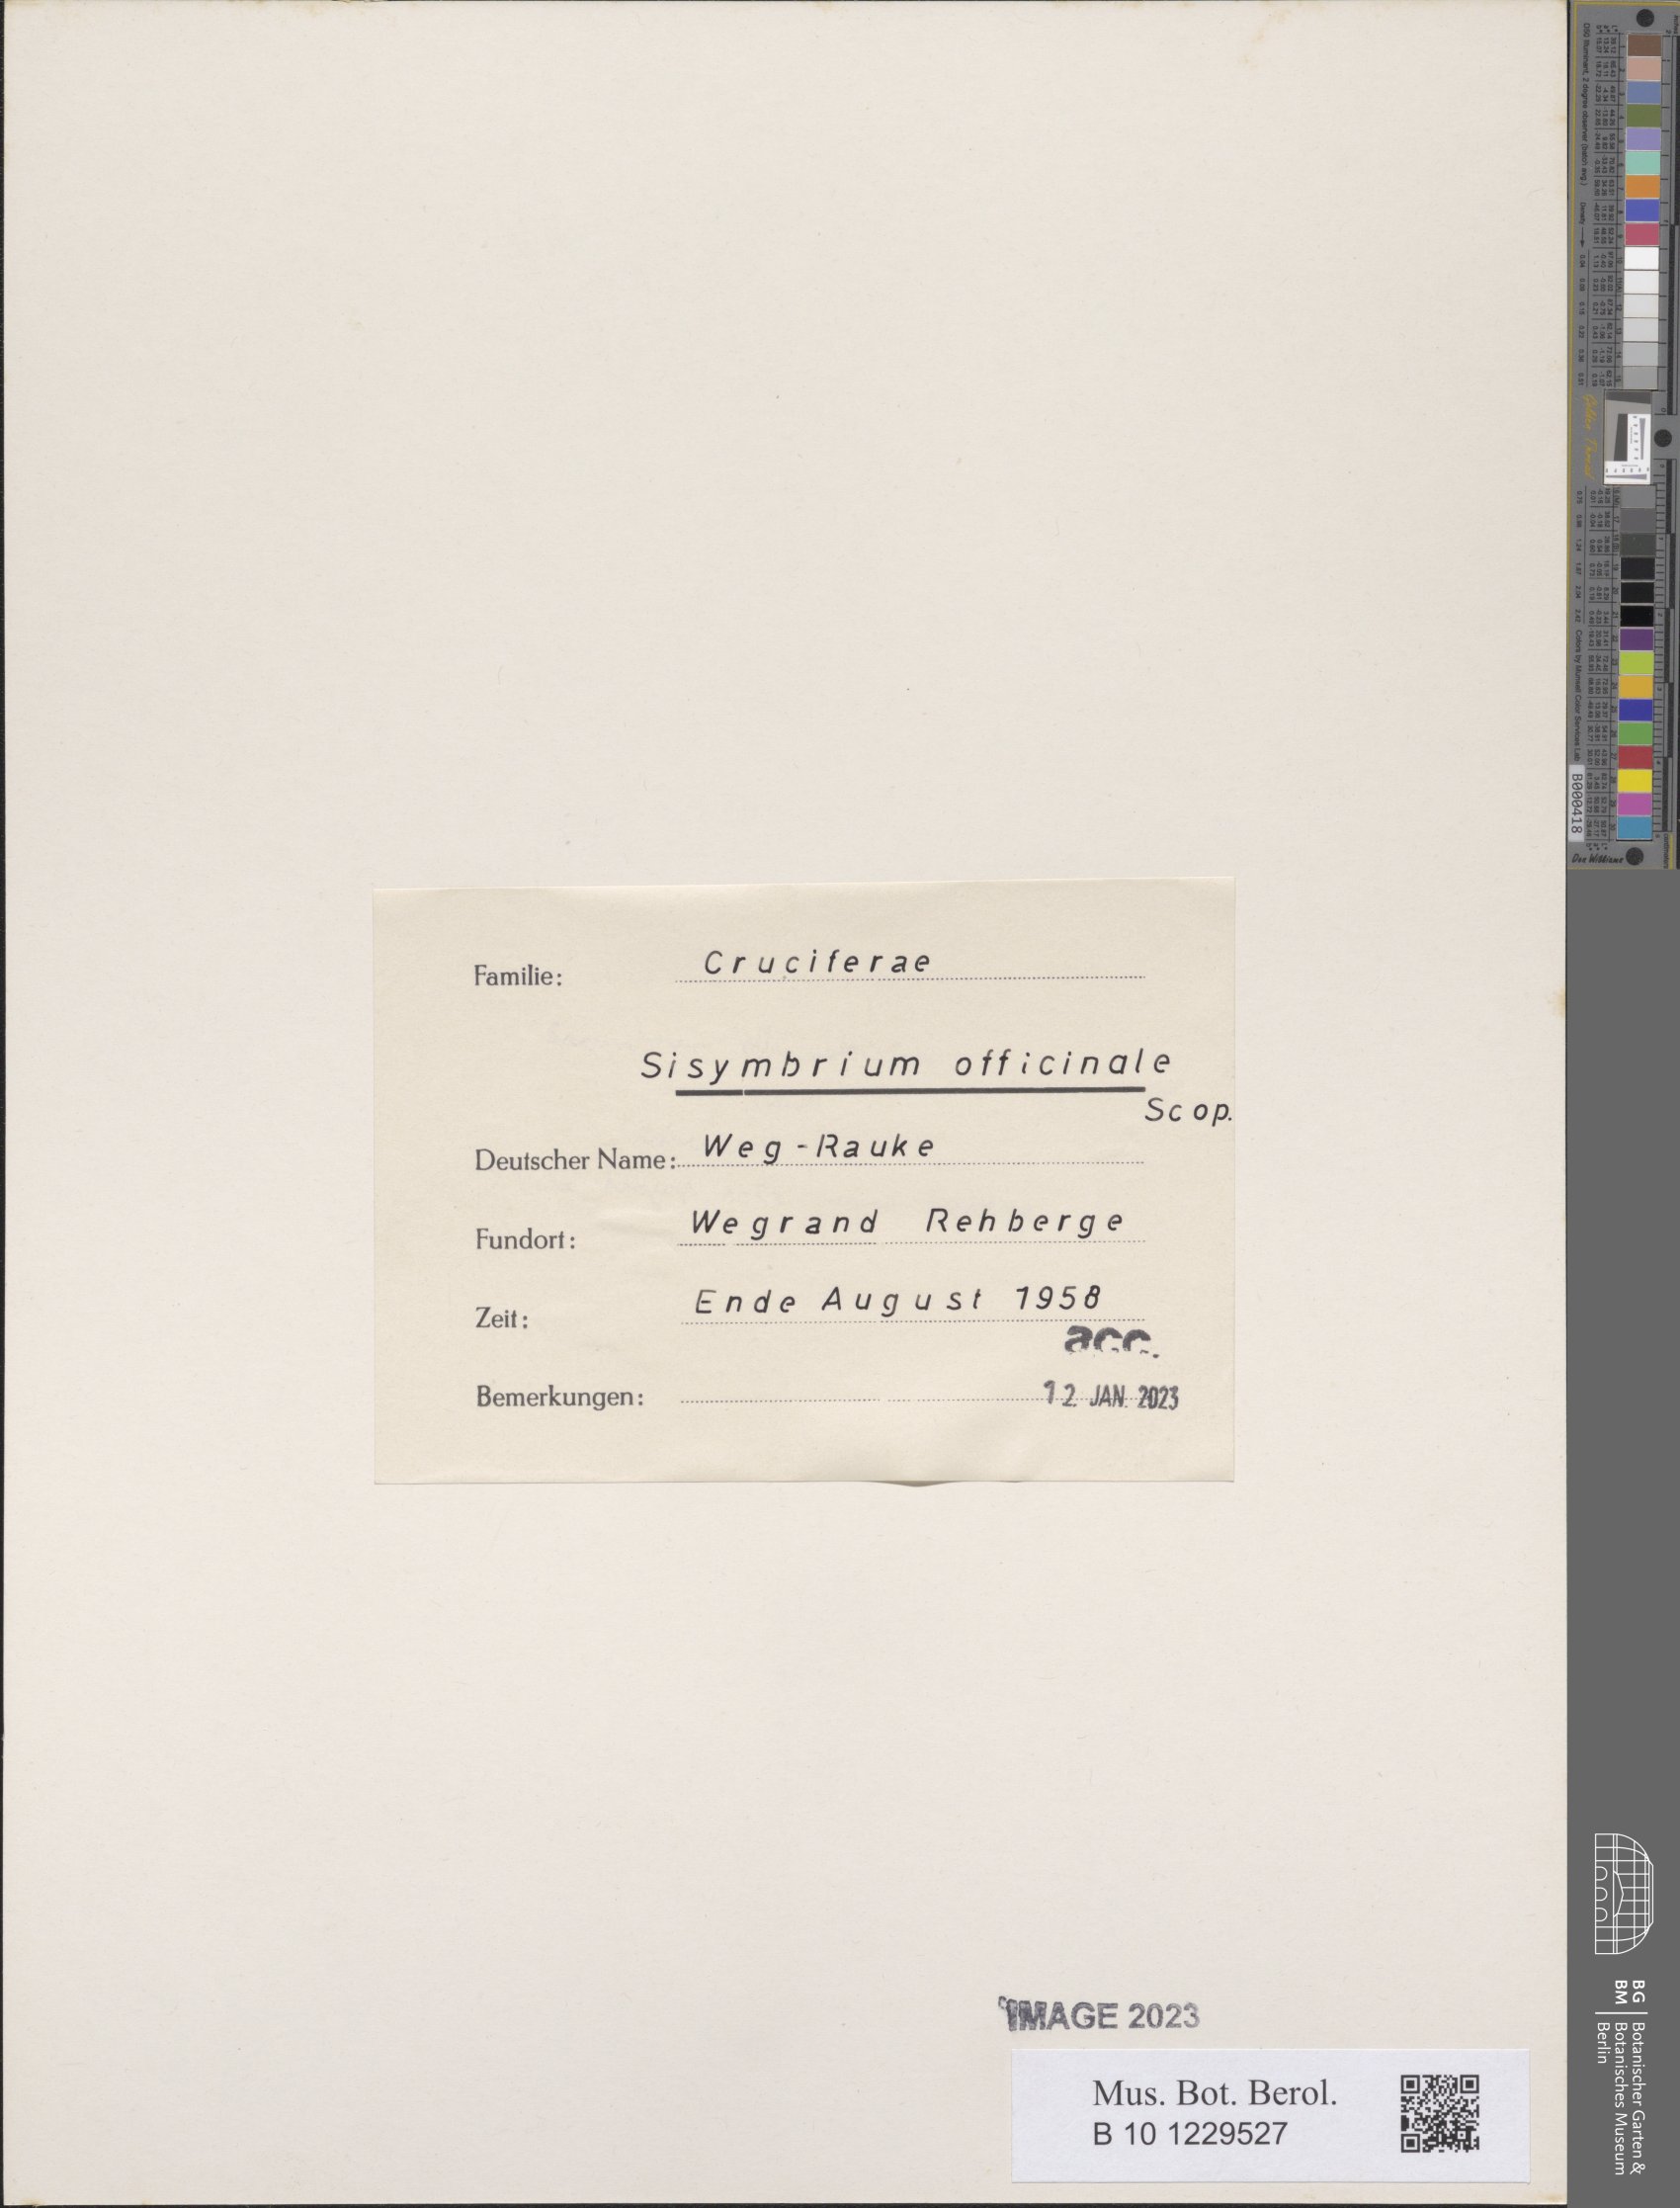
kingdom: Plantae
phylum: Tracheophyta
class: Magnoliopsida
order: Brassicales
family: Brassicaceae
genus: Sisymbrium
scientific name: Sisymbrium officinale
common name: Hedge mustard
